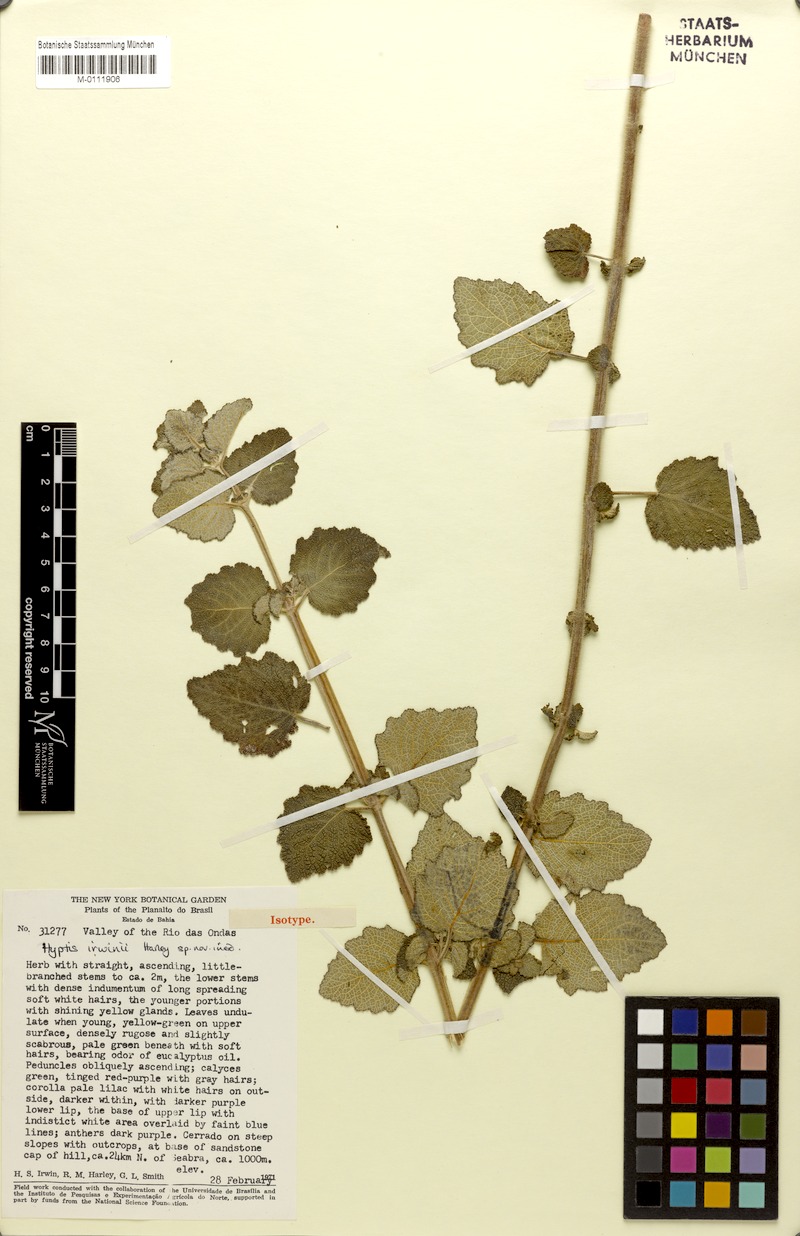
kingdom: Plantae
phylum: Tracheophyta
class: Magnoliopsida
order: Lamiales
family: Lamiaceae
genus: Mesosphaerum
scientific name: Mesosphaerum irwinii
